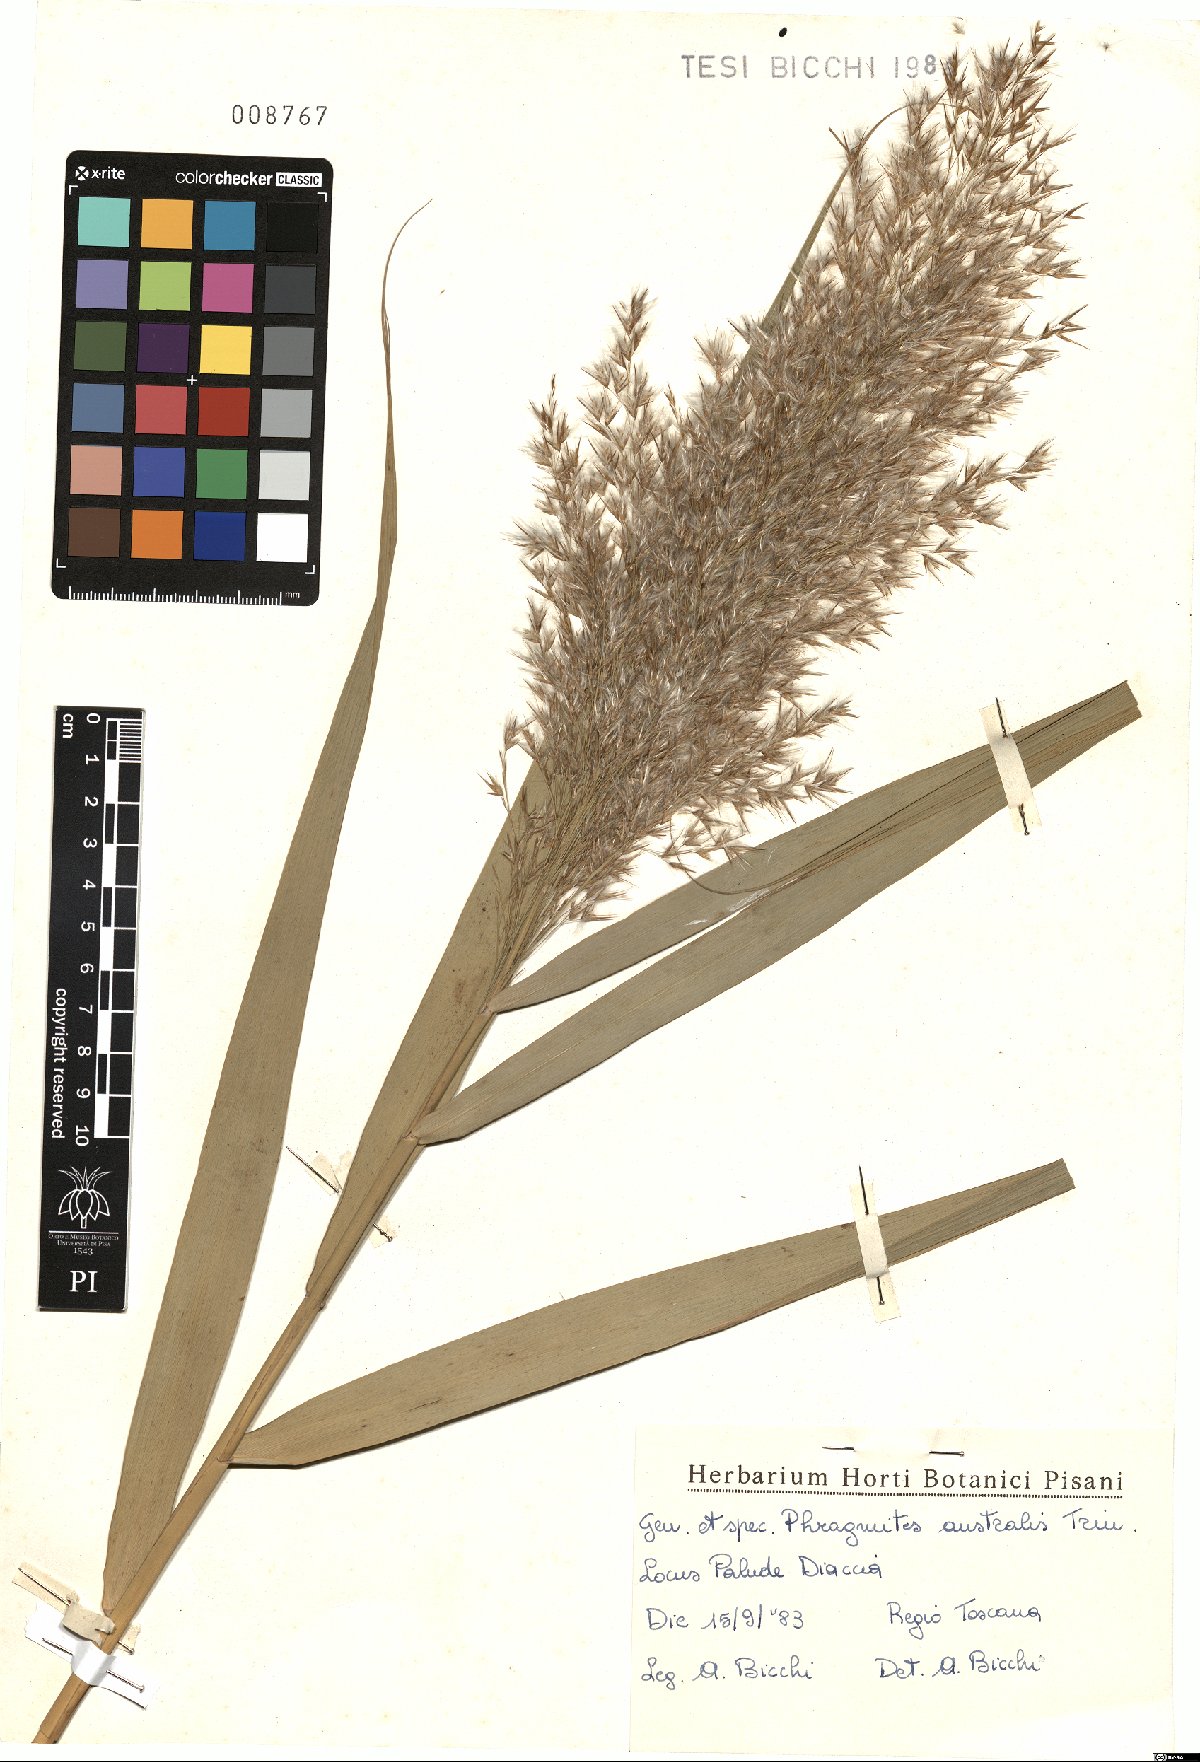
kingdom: Plantae
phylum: Tracheophyta
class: Liliopsida
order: Poales
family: Poaceae
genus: Phragmites
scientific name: Phragmites australis
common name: Common reed
